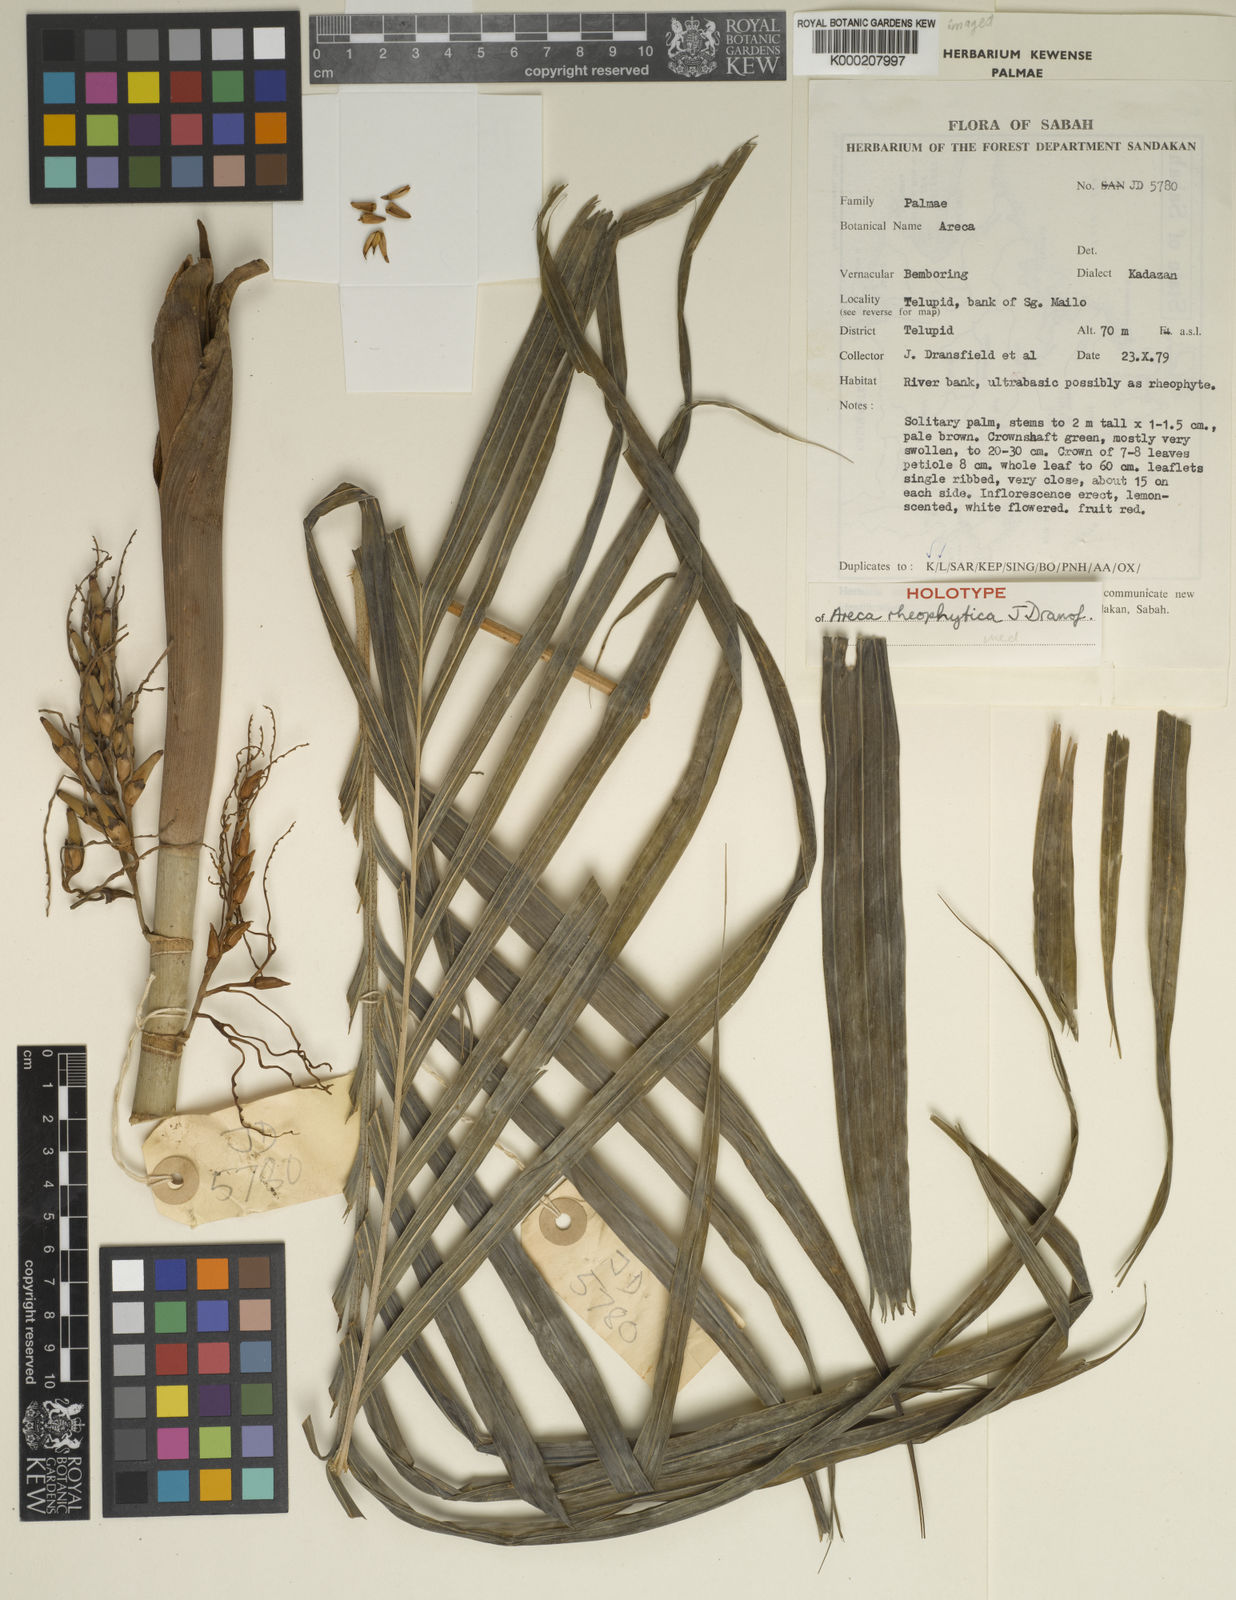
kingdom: Plantae
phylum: Tracheophyta
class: Liliopsida
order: Arecales
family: Arecaceae
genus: Areca
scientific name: Areca rheophytica
